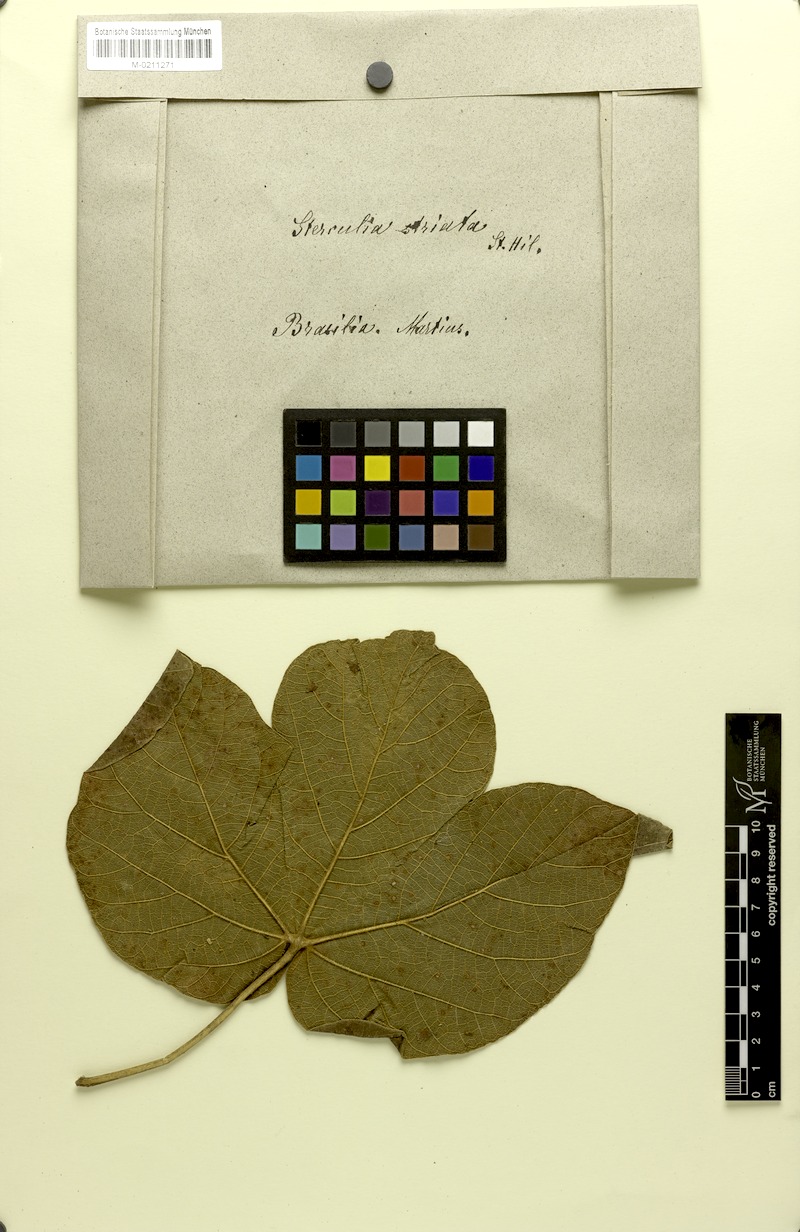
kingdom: Plantae
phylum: Tracheophyta
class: Magnoliopsida
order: Malvales
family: Malvaceae
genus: Sterculia
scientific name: Sterculia striata
